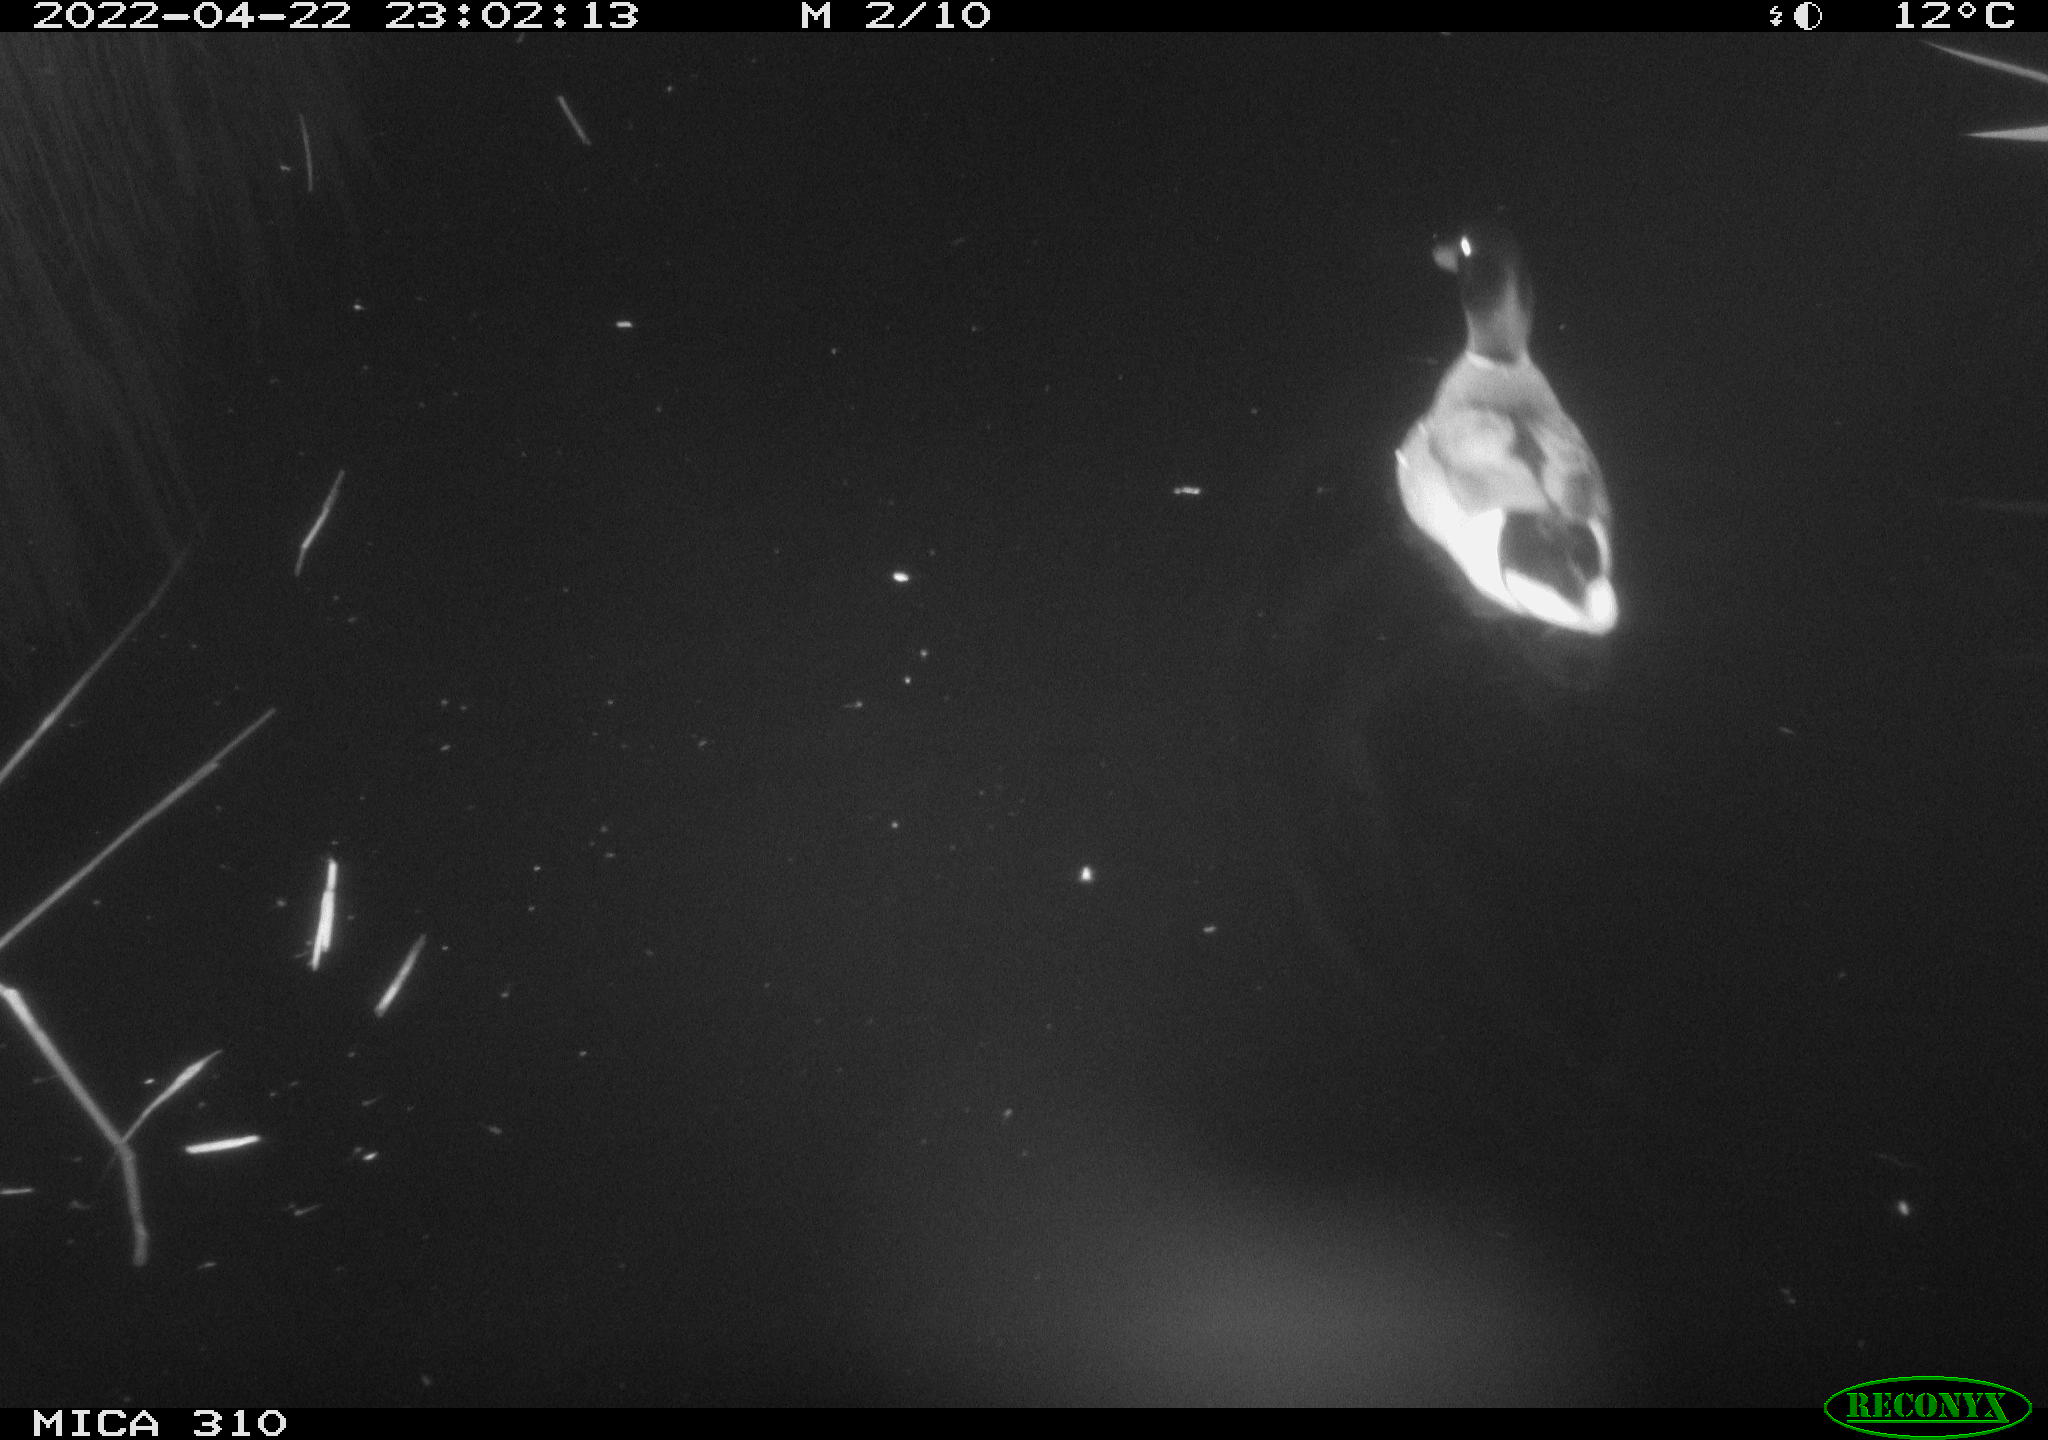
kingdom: Animalia
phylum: Chordata
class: Aves
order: Anseriformes
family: Anatidae
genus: Anas
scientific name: Anas platyrhynchos
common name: Mallard
